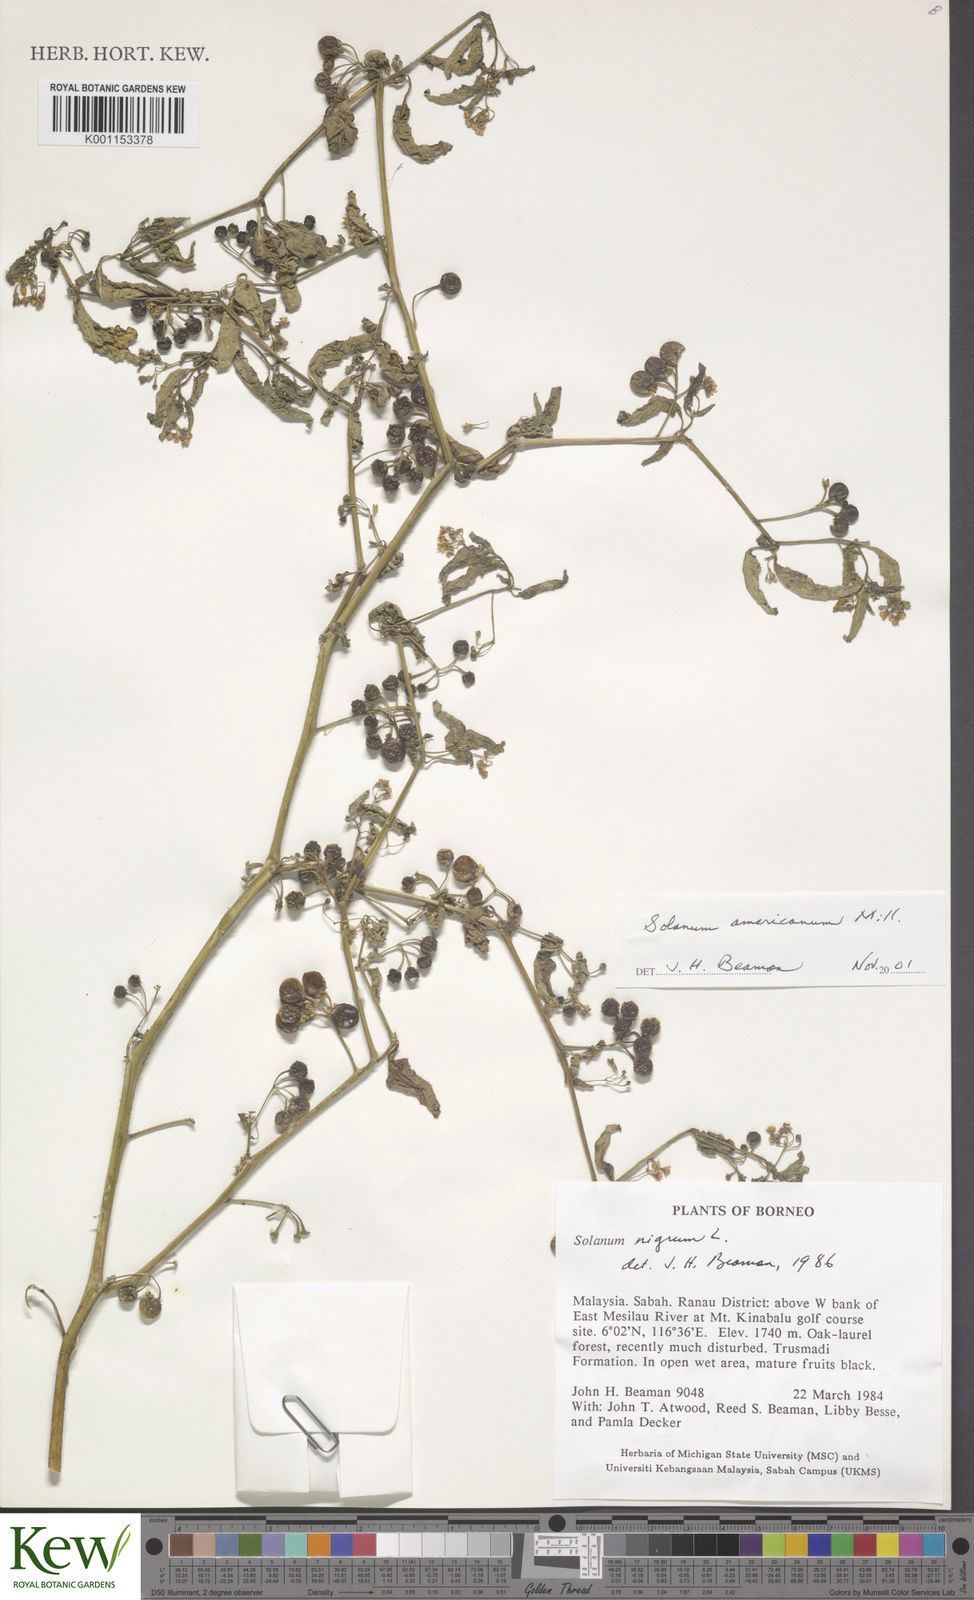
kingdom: Plantae
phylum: Tracheophyta
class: Magnoliopsida
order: Solanales
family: Solanaceae
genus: Solanum
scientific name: Solanum americanum
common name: American black nightshade
